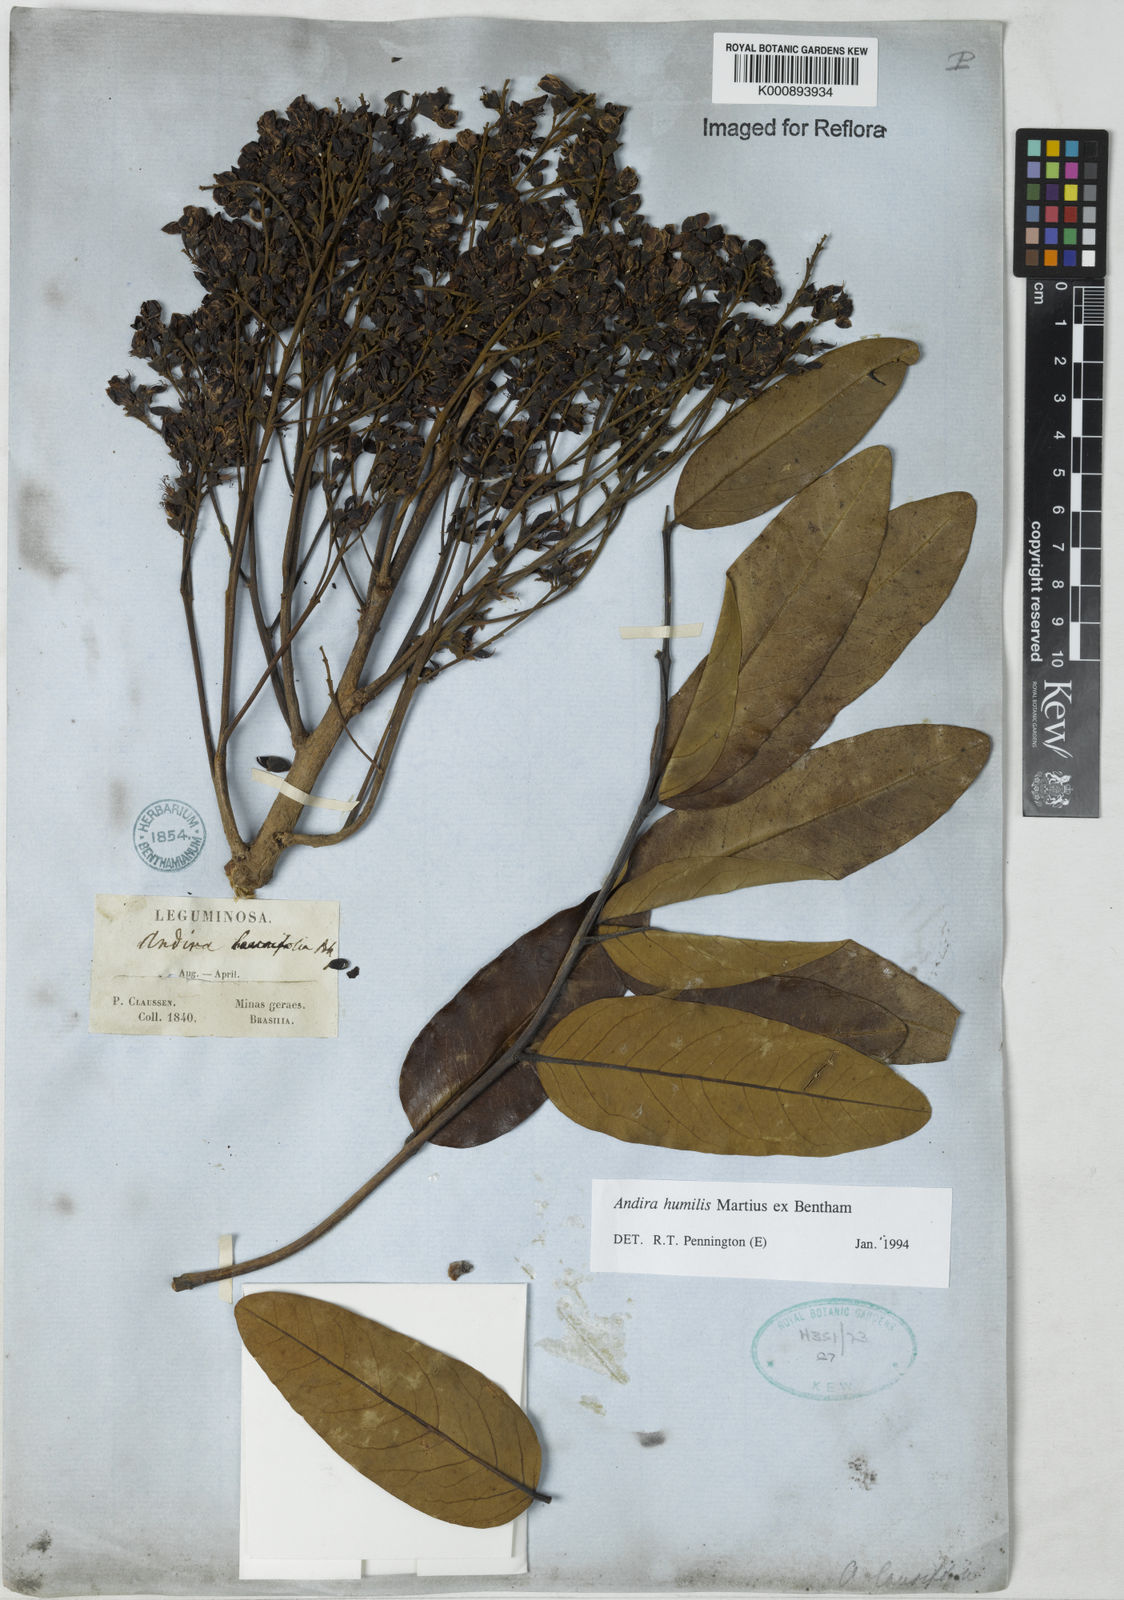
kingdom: Plantae
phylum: Tracheophyta
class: Magnoliopsida
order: Fabales
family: Fabaceae
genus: Andira
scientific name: Andira humilis
